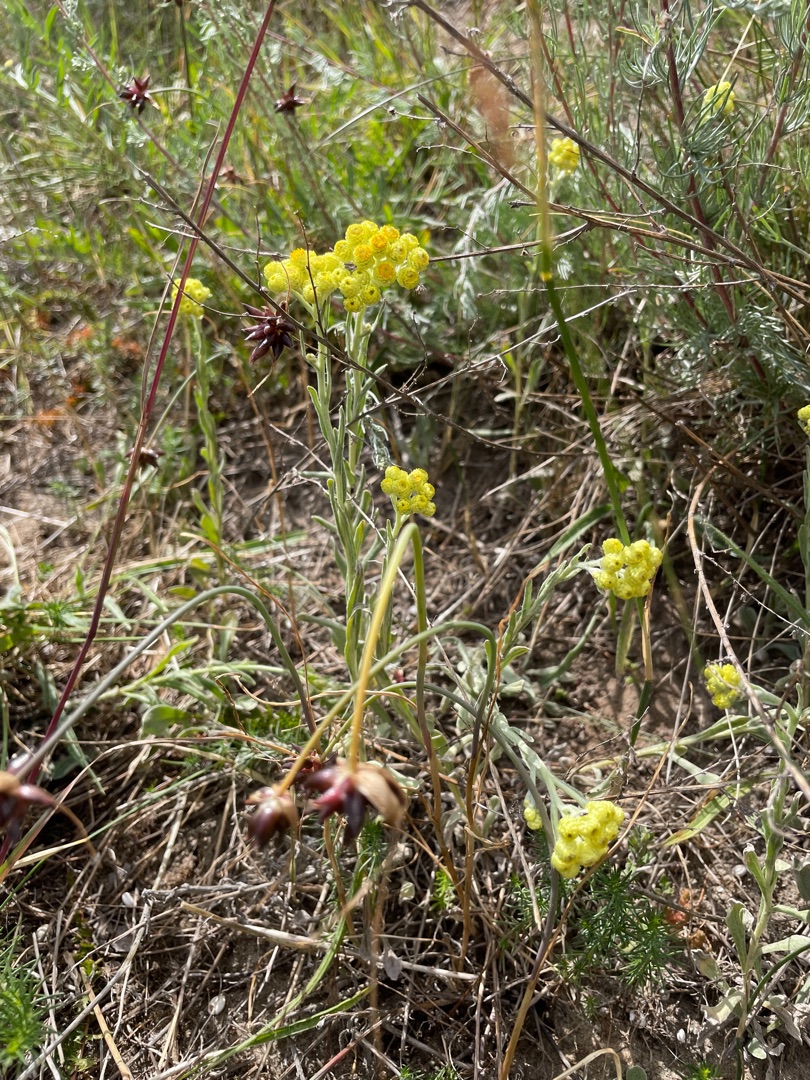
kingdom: Plantae
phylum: Tracheophyta
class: Magnoliopsida
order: Asterales
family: Asteraceae
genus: Helichrysum
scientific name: Helichrysum arenarium
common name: Gul evighedsblomst
